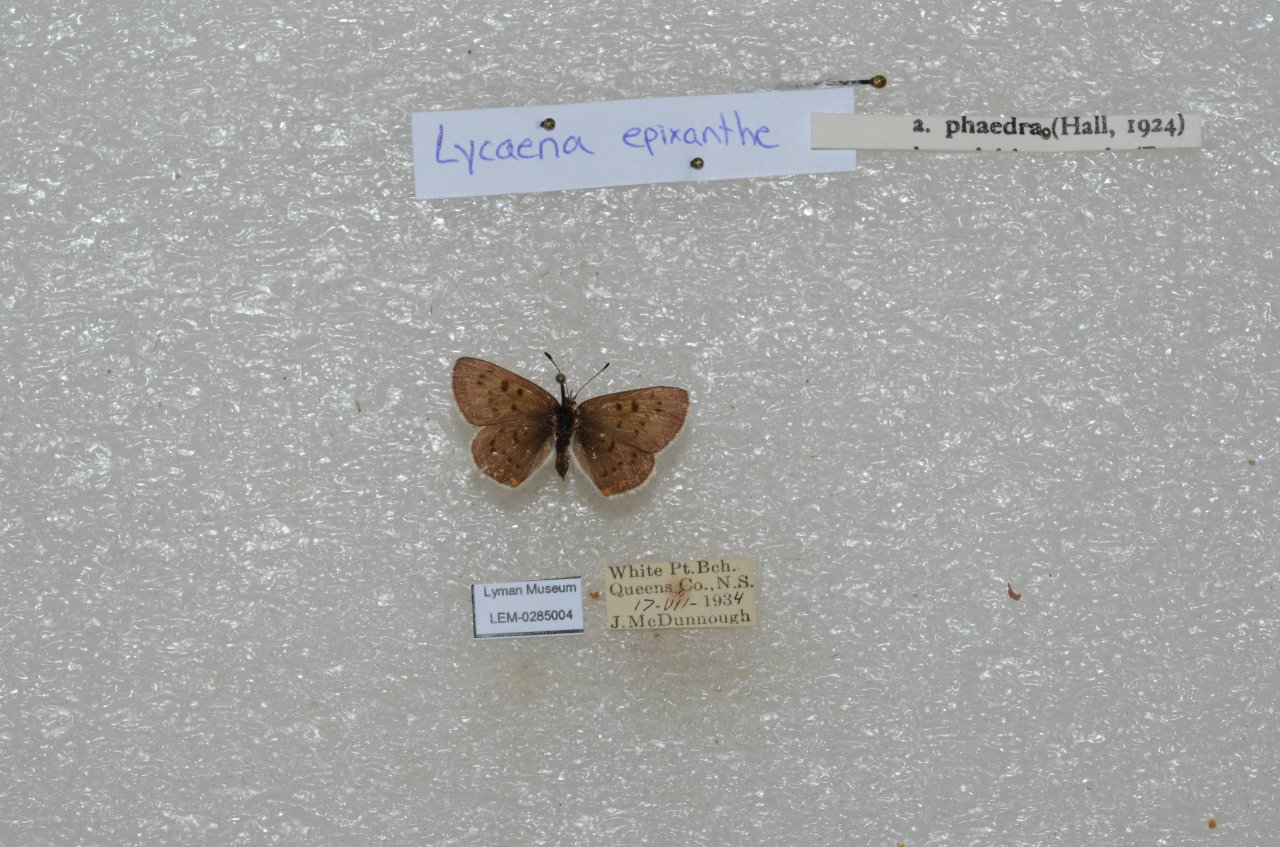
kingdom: Animalia
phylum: Arthropoda
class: Insecta
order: Lepidoptera
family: Sesiidae
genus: Sesia
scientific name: Sesia Lycaena epixanthe
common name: Bog Copper
